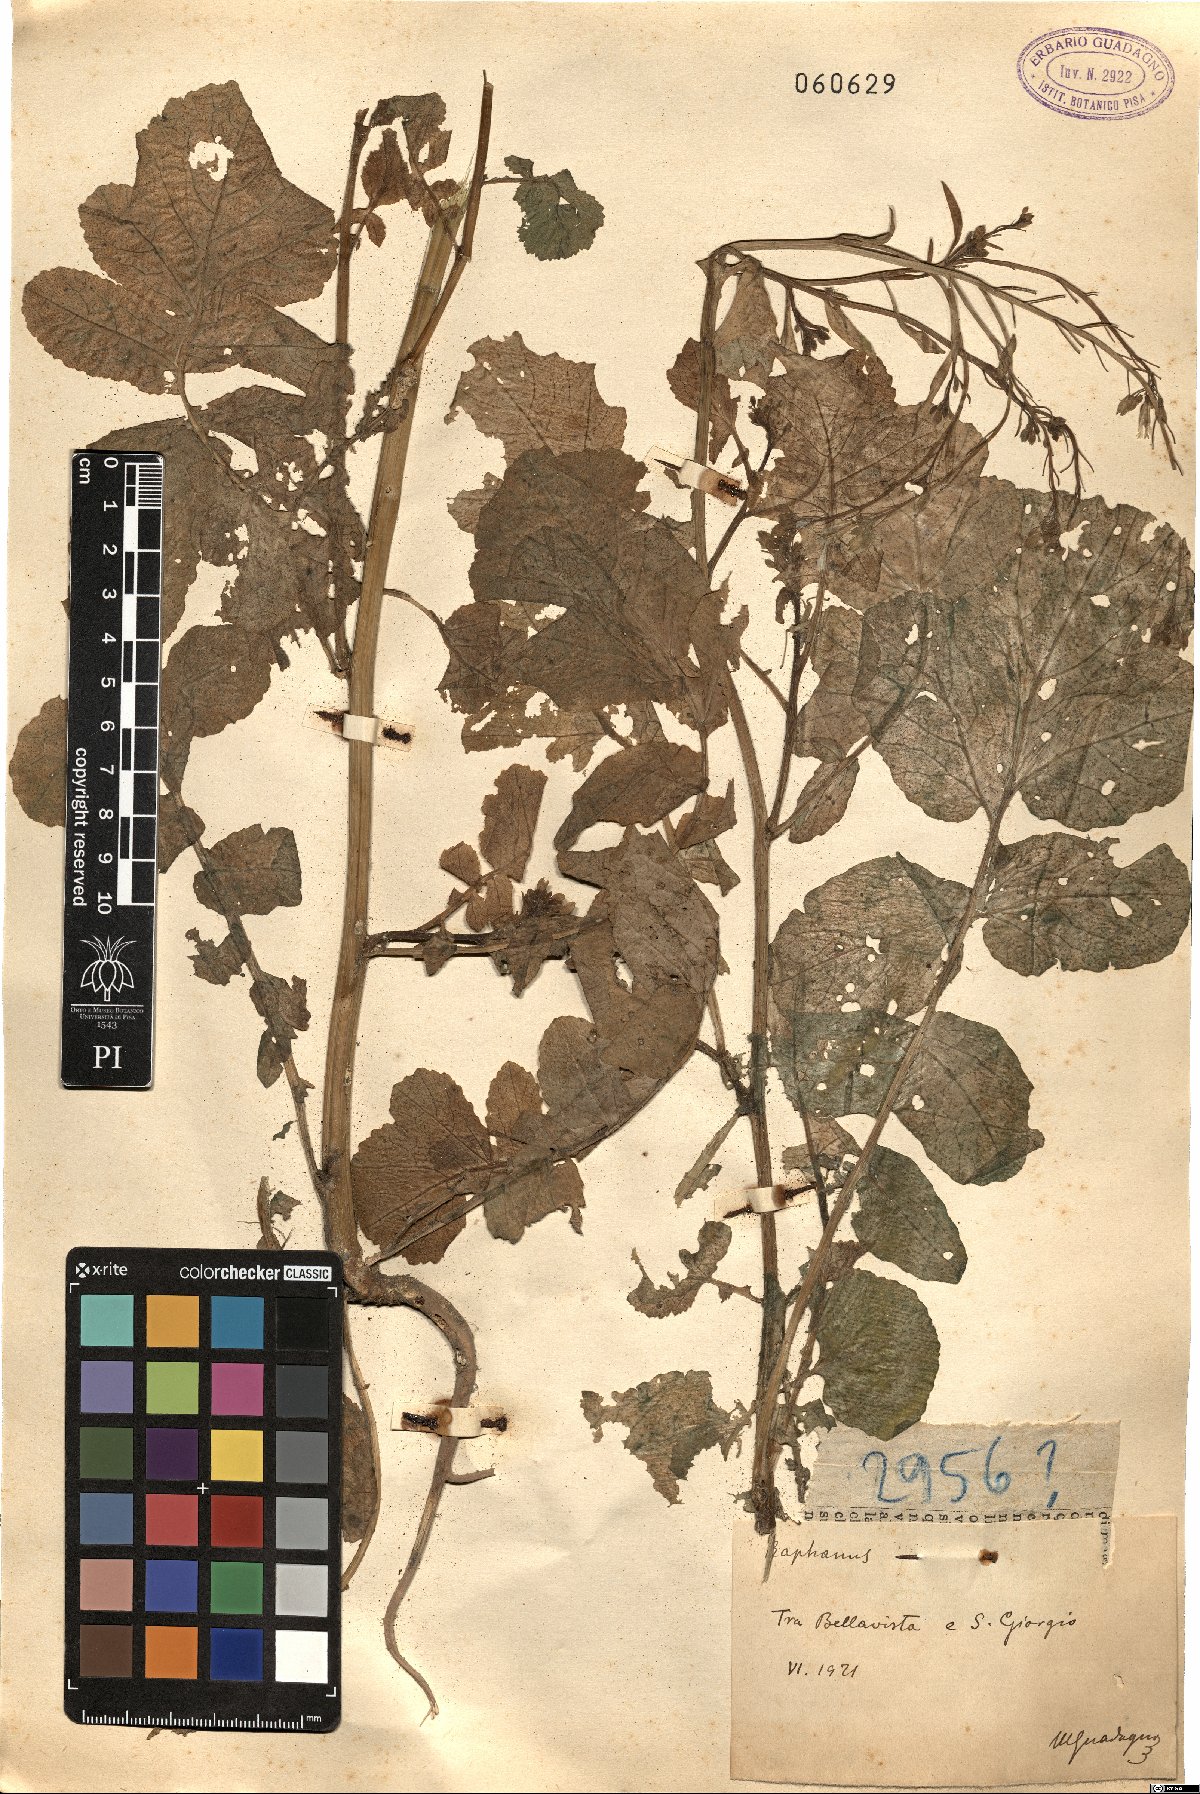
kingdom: Plantae
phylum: Tracheophyta
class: Magnoliopsida
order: Brassicales
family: Brassicaceae
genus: Raphanus
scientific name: Raphanus
